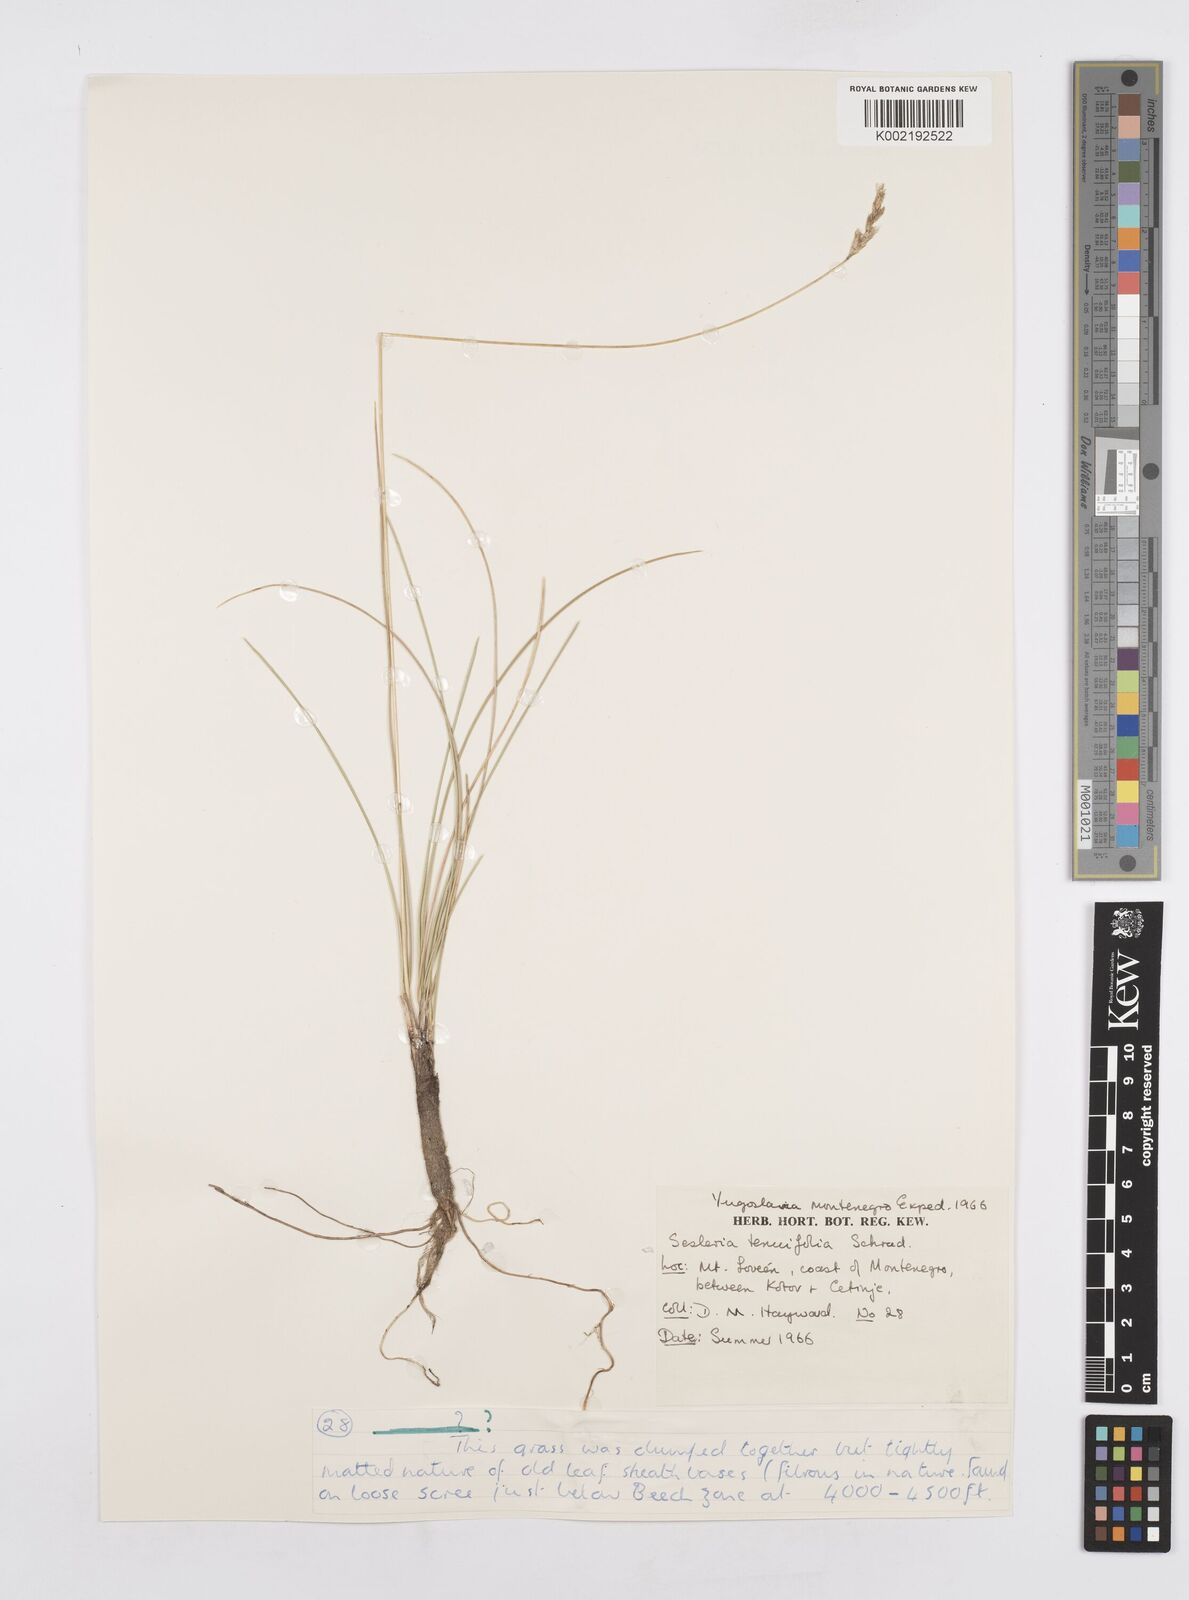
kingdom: Plantae
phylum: Tracheophyta
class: Liliopsida
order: Poales
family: Poaceae
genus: Sesleria
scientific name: Sesleria juncifolia
